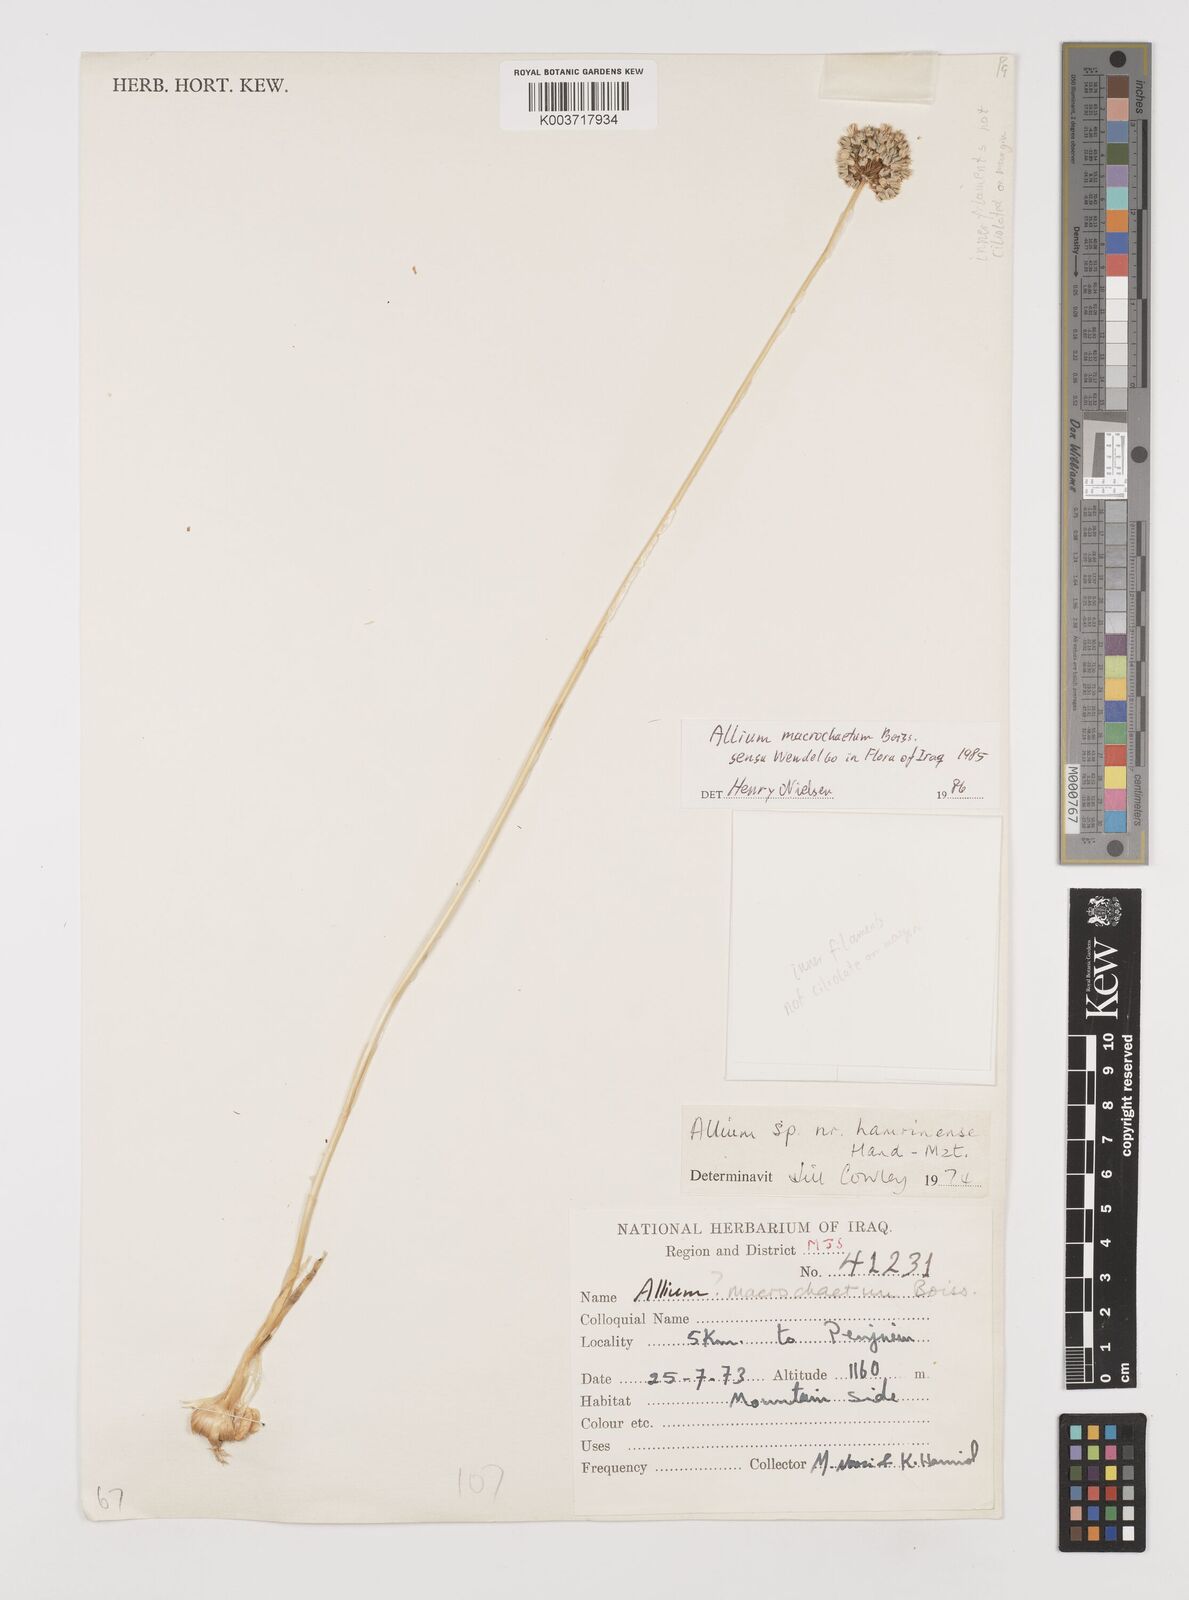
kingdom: Plantae
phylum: Tracheophyta
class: Liliopsida
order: Asparagales
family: Amaryllidaceae
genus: Allium
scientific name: Allium macrochaetum
